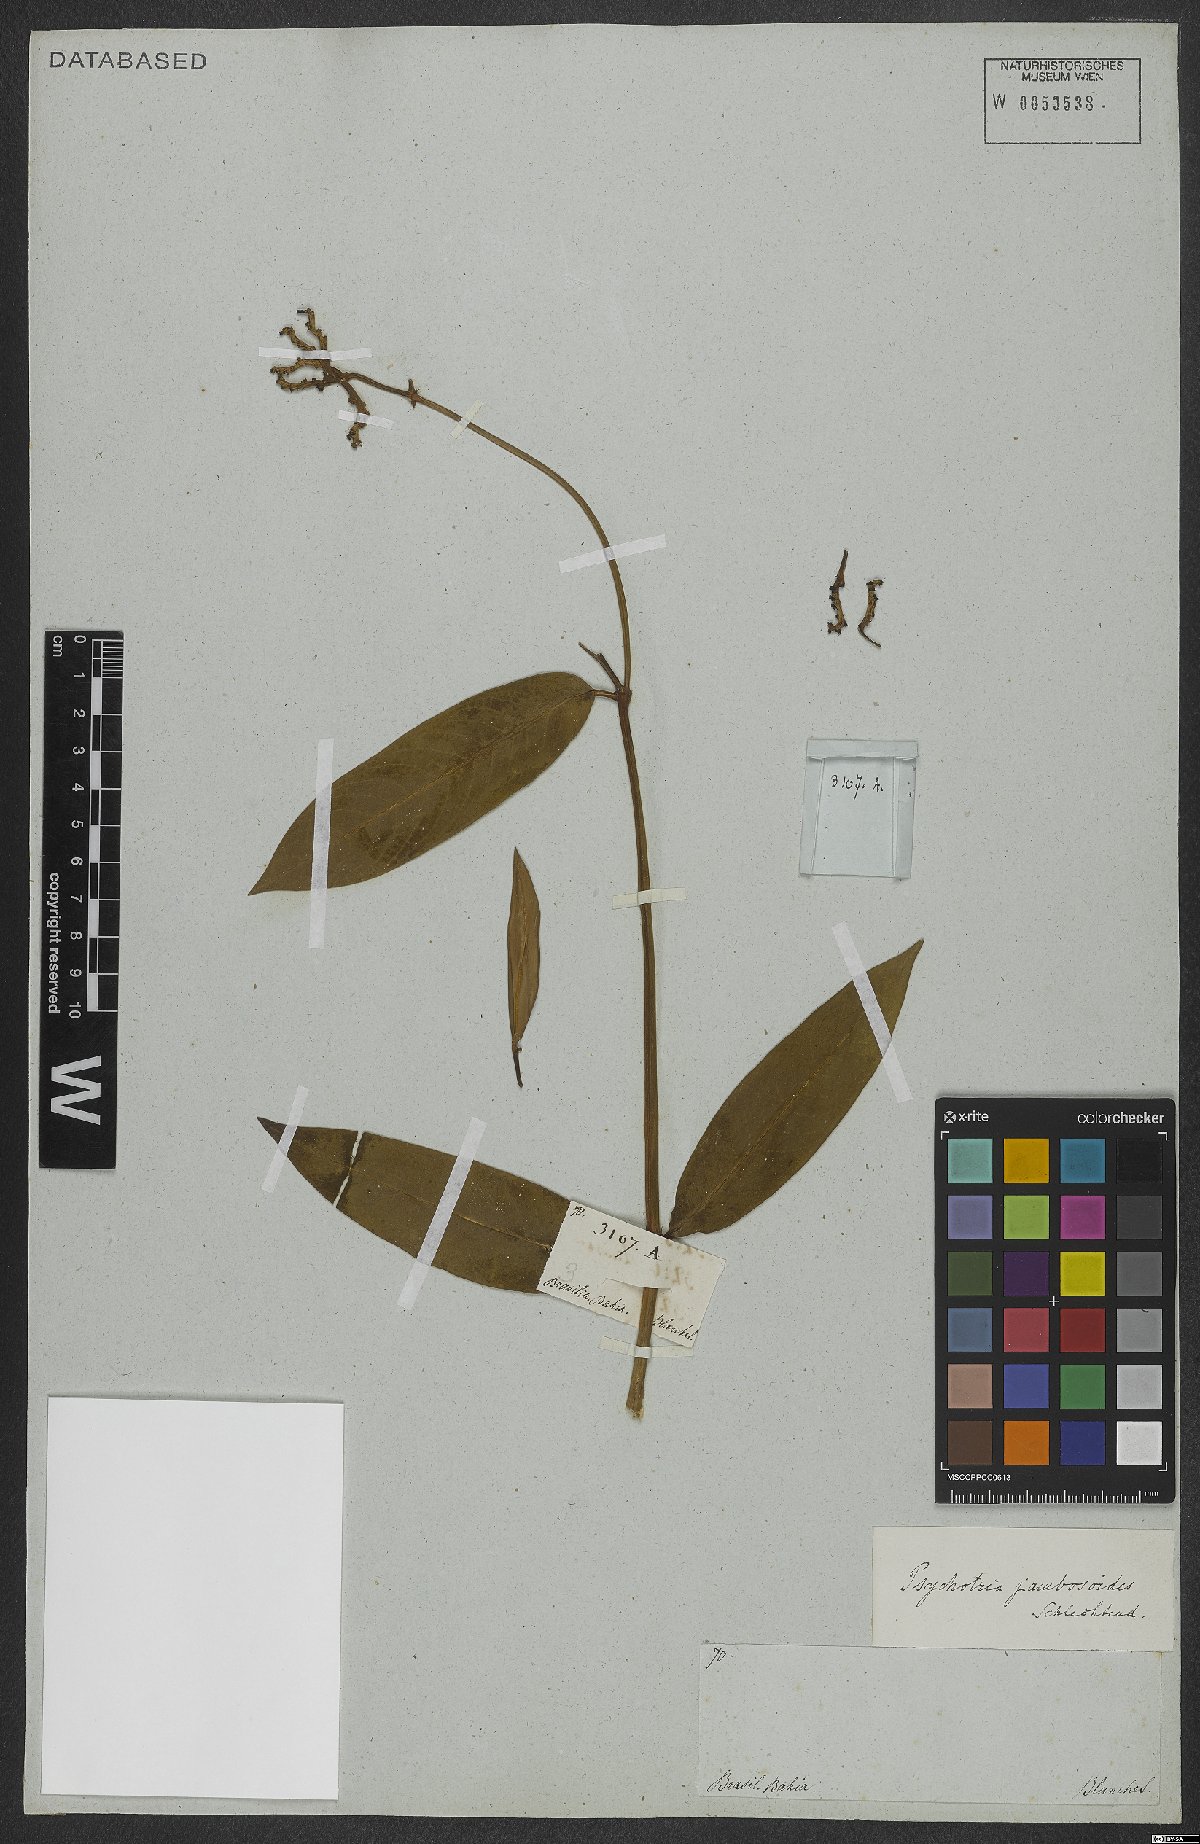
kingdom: Plantae
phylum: Tracheophyta
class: Magnoliopsida
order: Gentianales
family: Rubiaceae
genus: Palicourea
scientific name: Palicourea jambosioides
